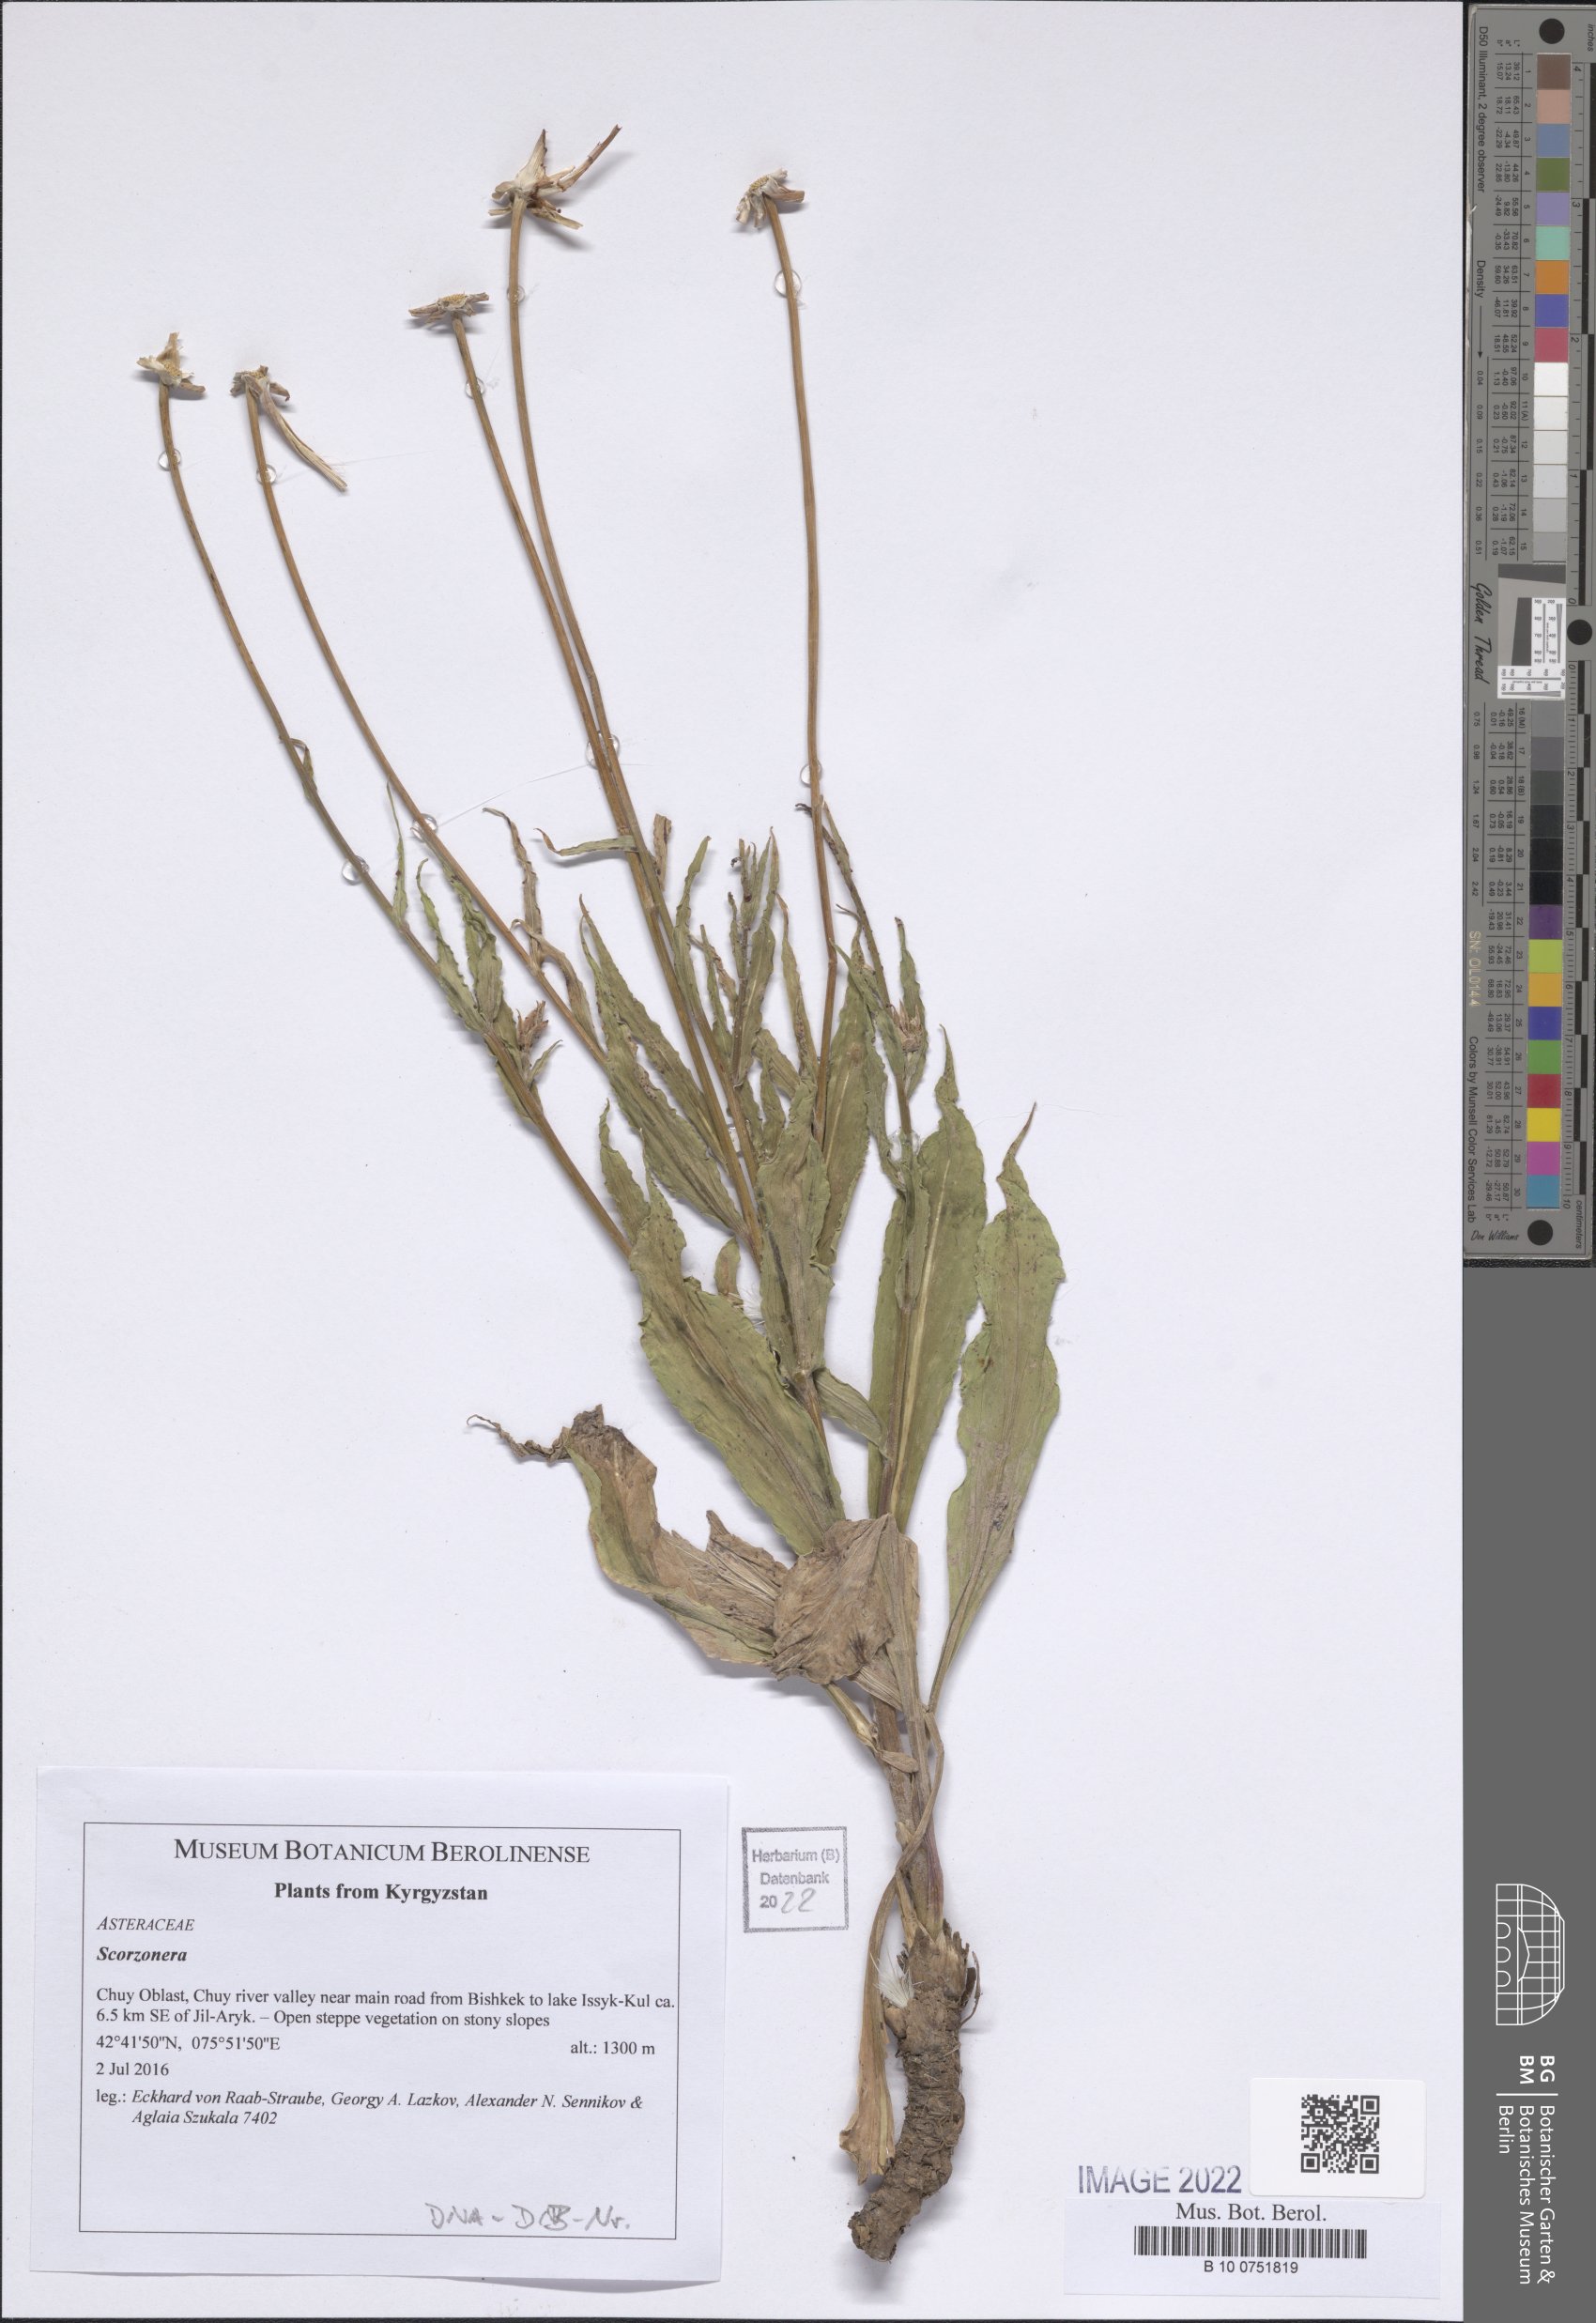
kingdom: Plantae
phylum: Tracheophyta
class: Magnoliopsida
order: Asterales
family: Asteraceae
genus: Scorzonera
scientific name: Scorzonera
